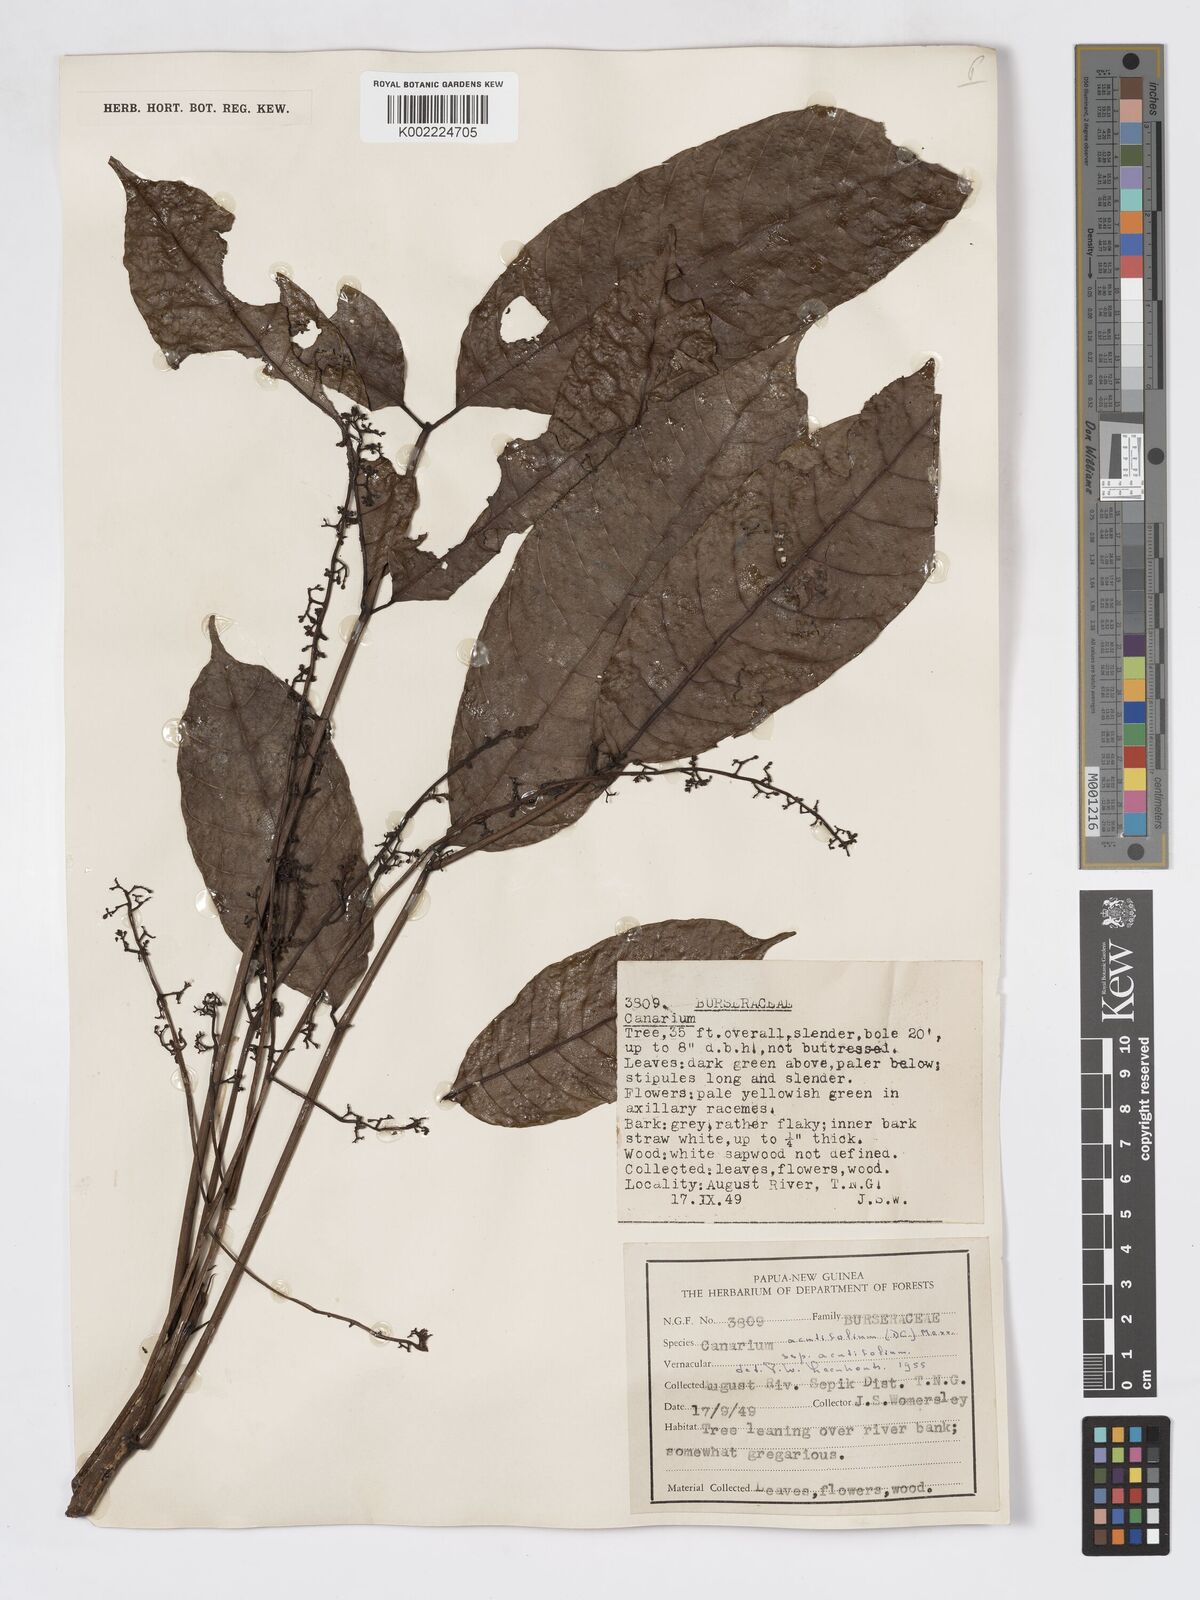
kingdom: Plantae
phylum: Tracheophyta
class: Magnoliopsida
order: Sapindales
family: Burseraceae
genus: Canarium
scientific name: Canarium acutifolium
